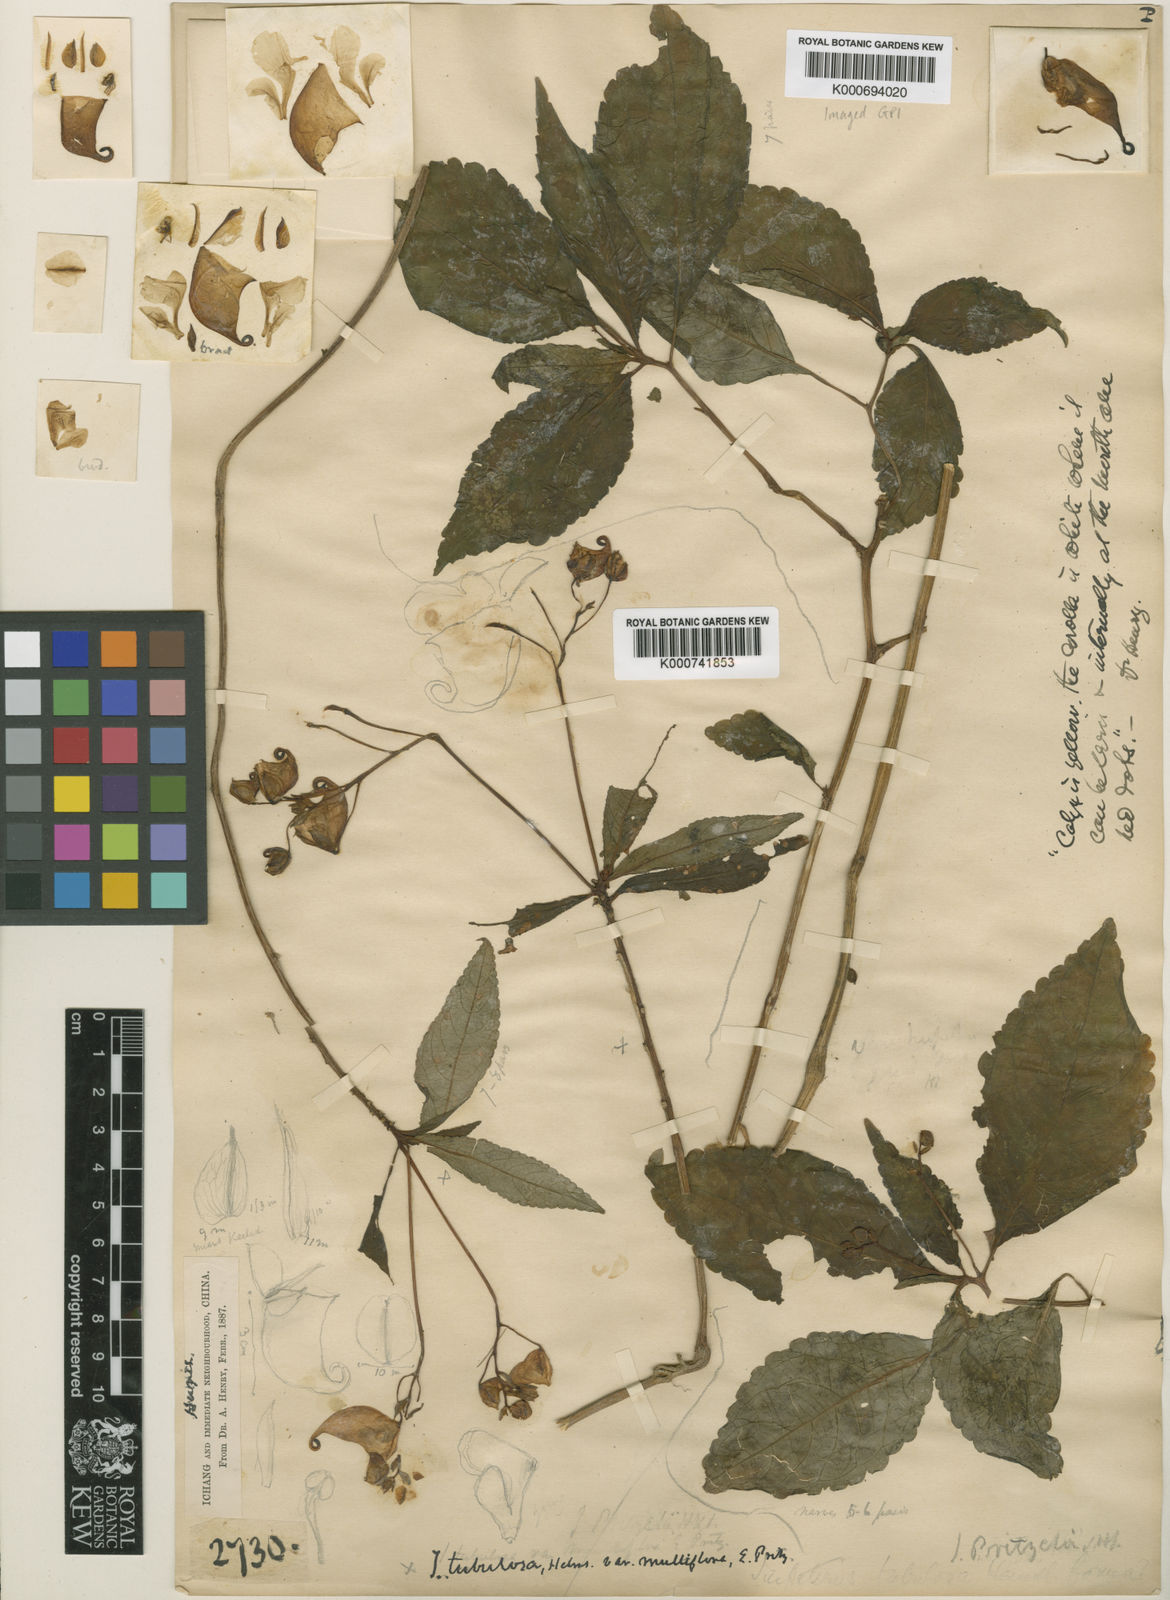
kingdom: Plantae
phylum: Tracheophyta
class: Magnoliopsida
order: Ericales
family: Balsaminaceae
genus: Impatiens
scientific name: Impatiens pritzelii
